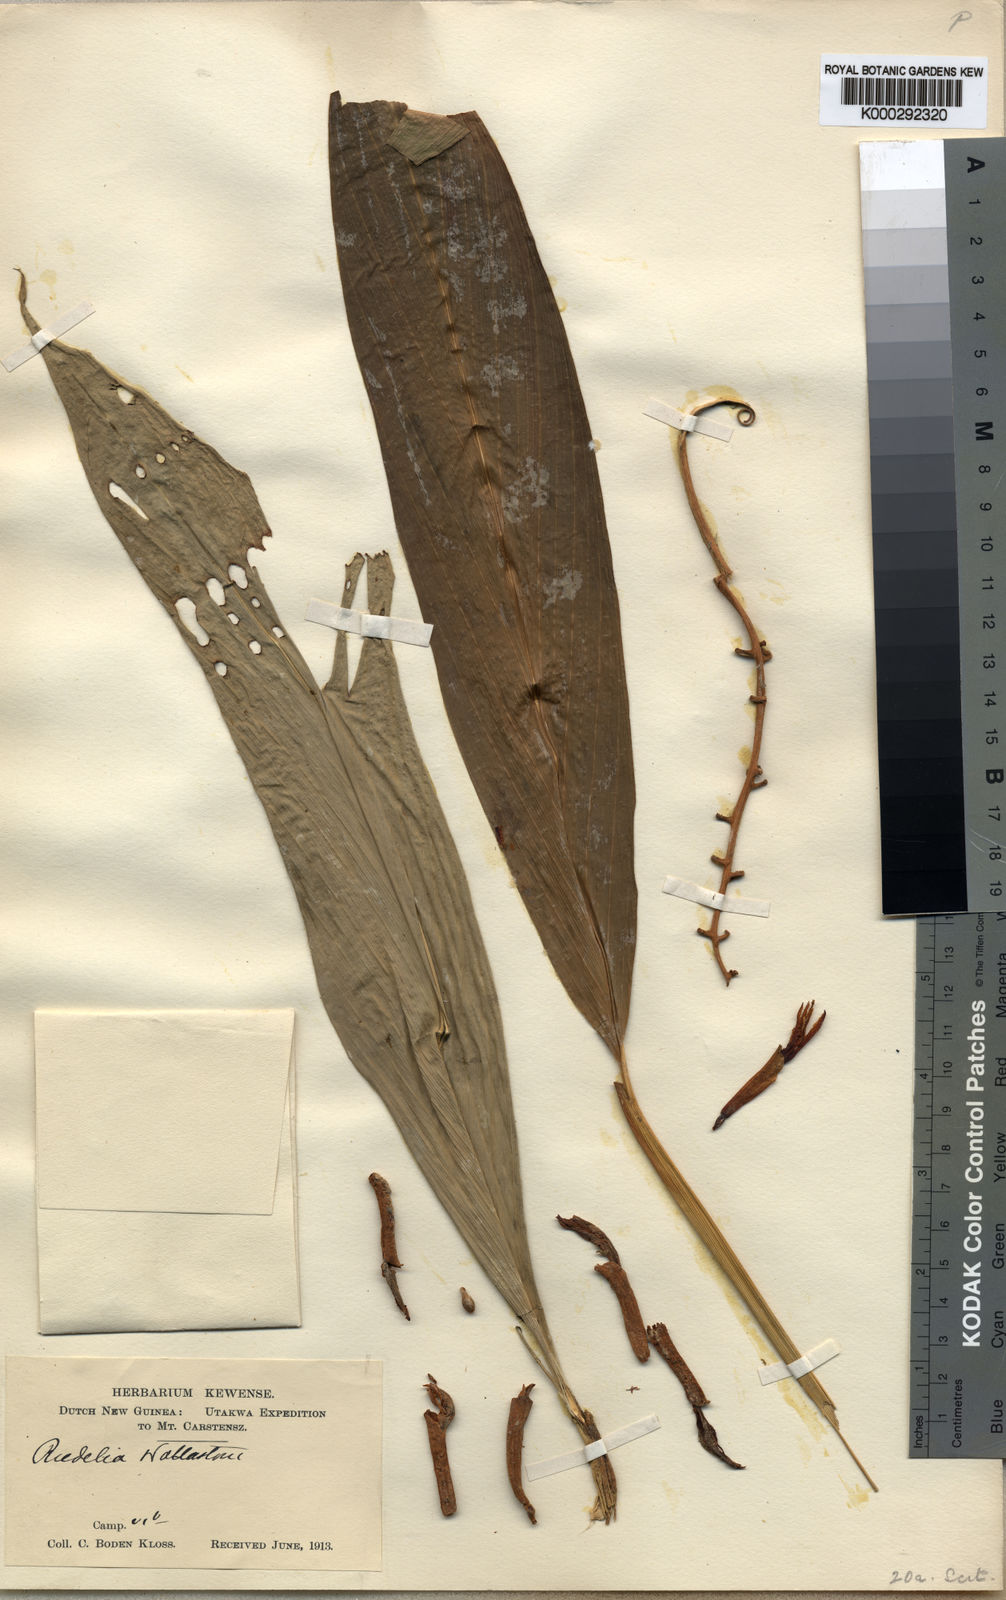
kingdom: Plantae
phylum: Tracheophyta
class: Liliopsida
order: Zingiberales
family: Zingiberaceae
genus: Riedelia
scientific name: Riedelia wollastonii
